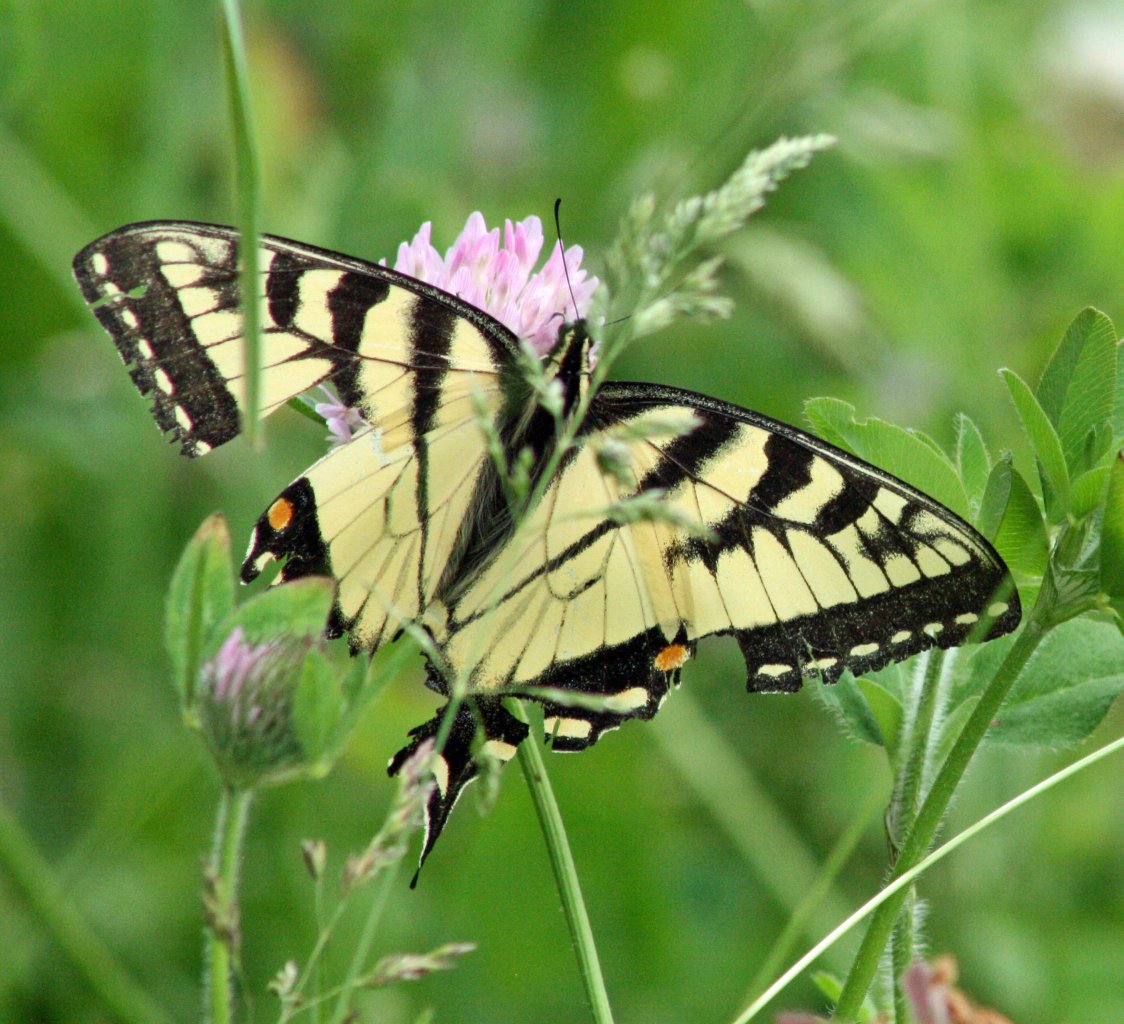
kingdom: Animalia
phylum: Arthropoda
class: Insecta
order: Lepidoptera
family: Papilionidae
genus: Pterourus
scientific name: Pterourus glaucus
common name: Eastern Tiger Swallowtail
